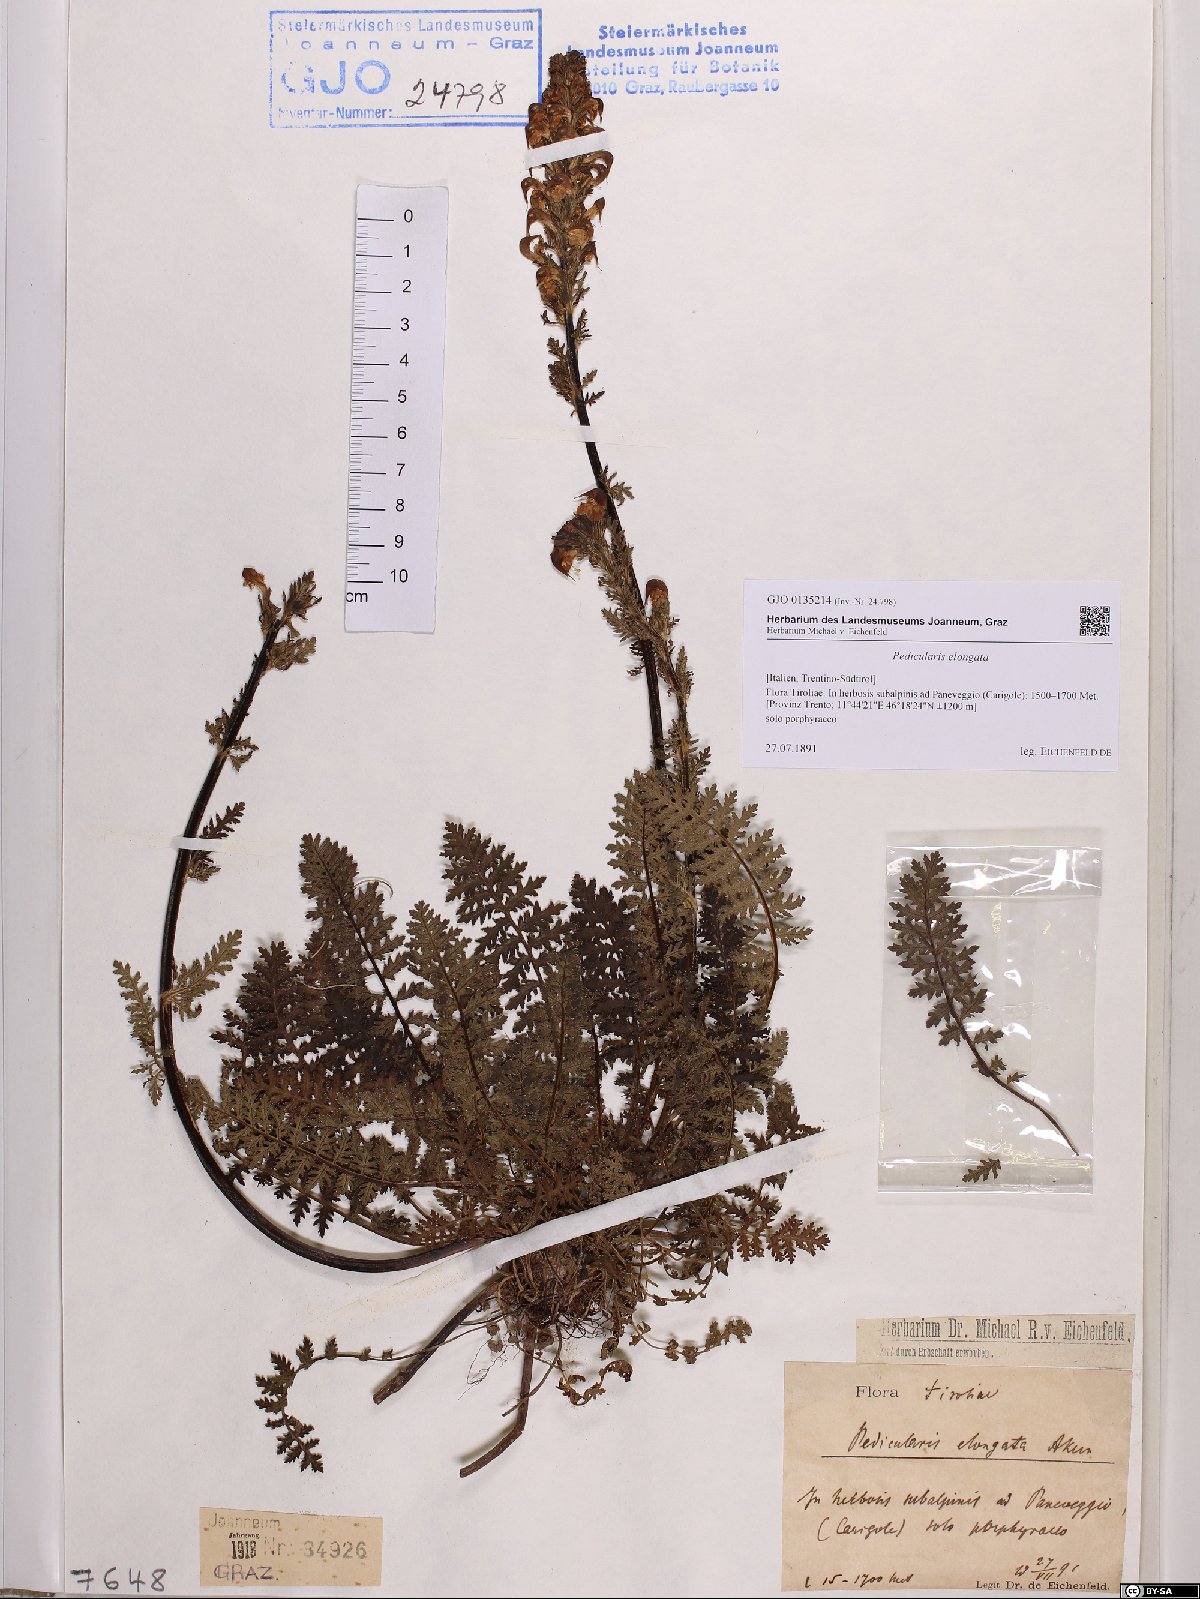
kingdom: Plantae
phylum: Tracheophyta
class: Magnoliopsida
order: Lamiales
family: Orobanchaceae
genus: Pedicularis
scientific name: Pedicularis elongata
